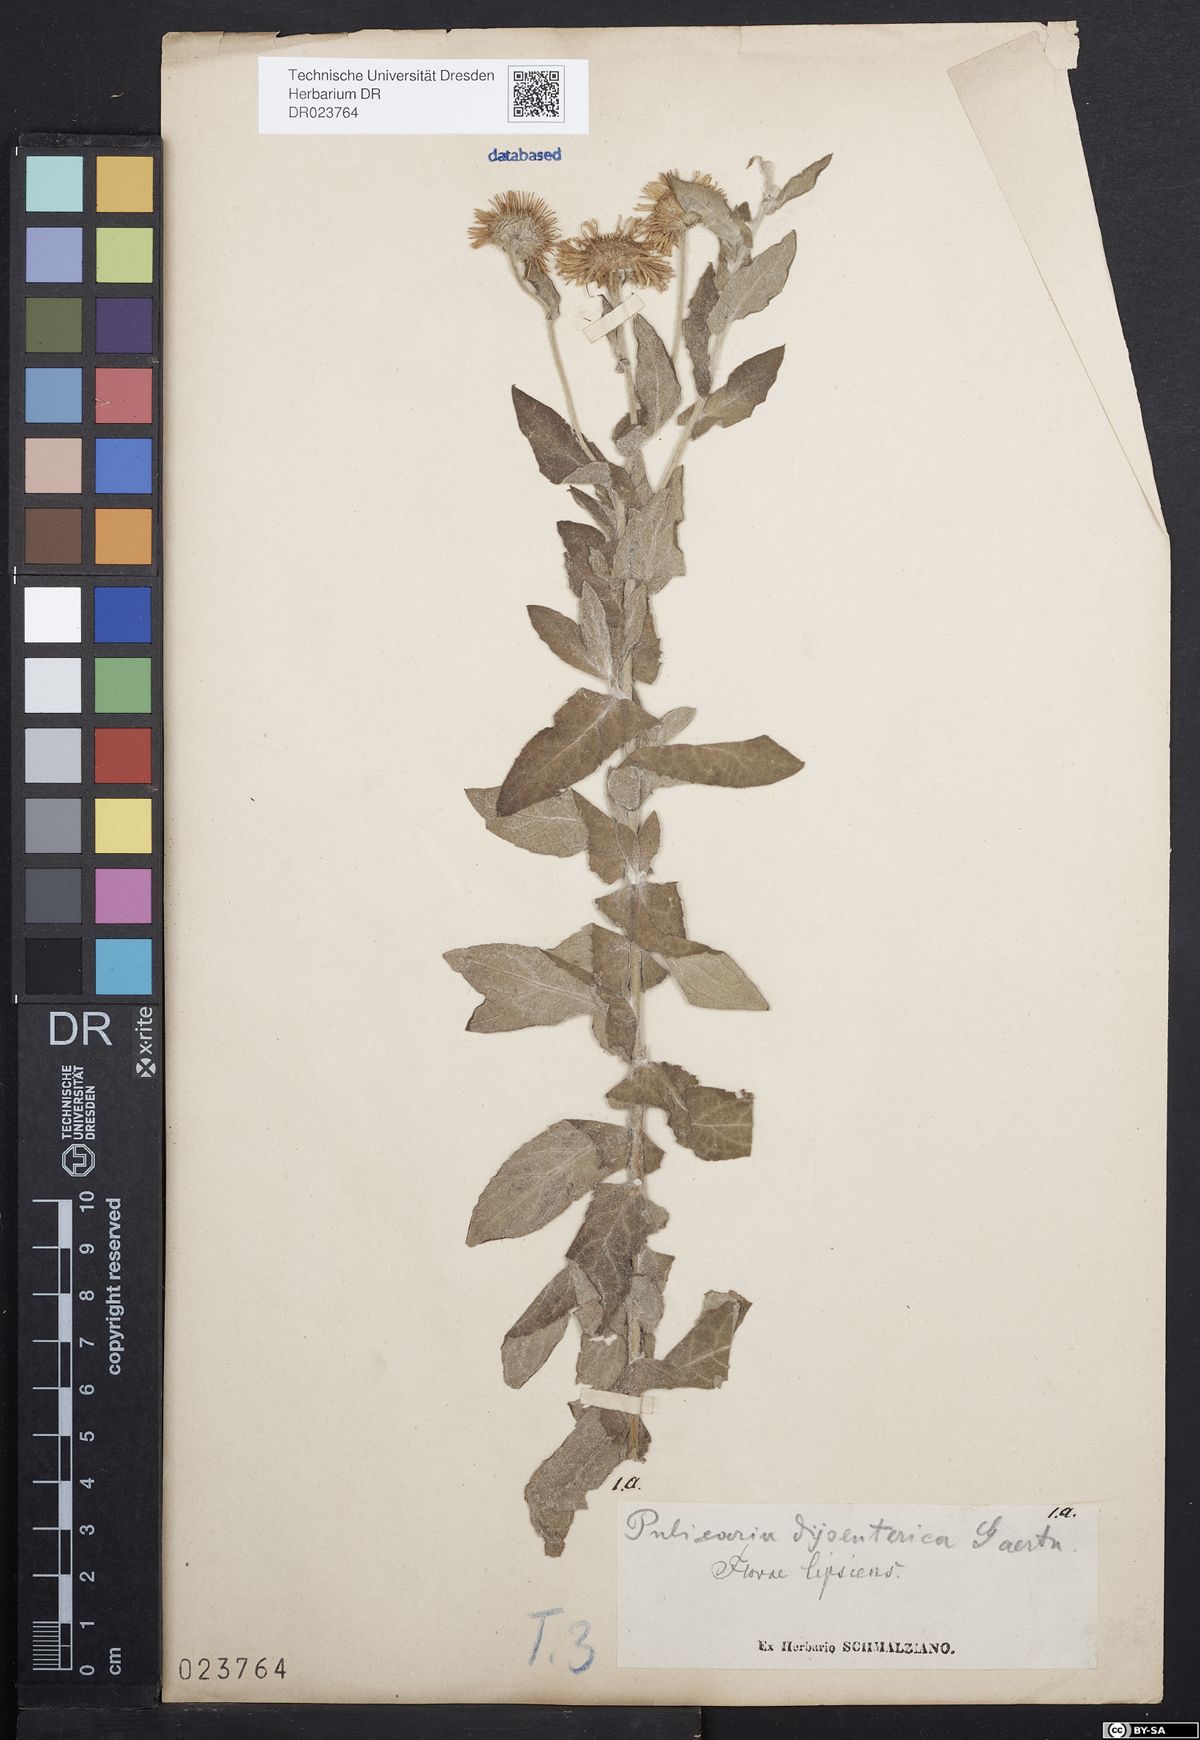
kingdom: Plantae
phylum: Tracheophyta
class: Magnoliopsida
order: Asterales
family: Asteraceae
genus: Pulicaria
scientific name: Pulicaria dysenterica
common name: Common fleabane
